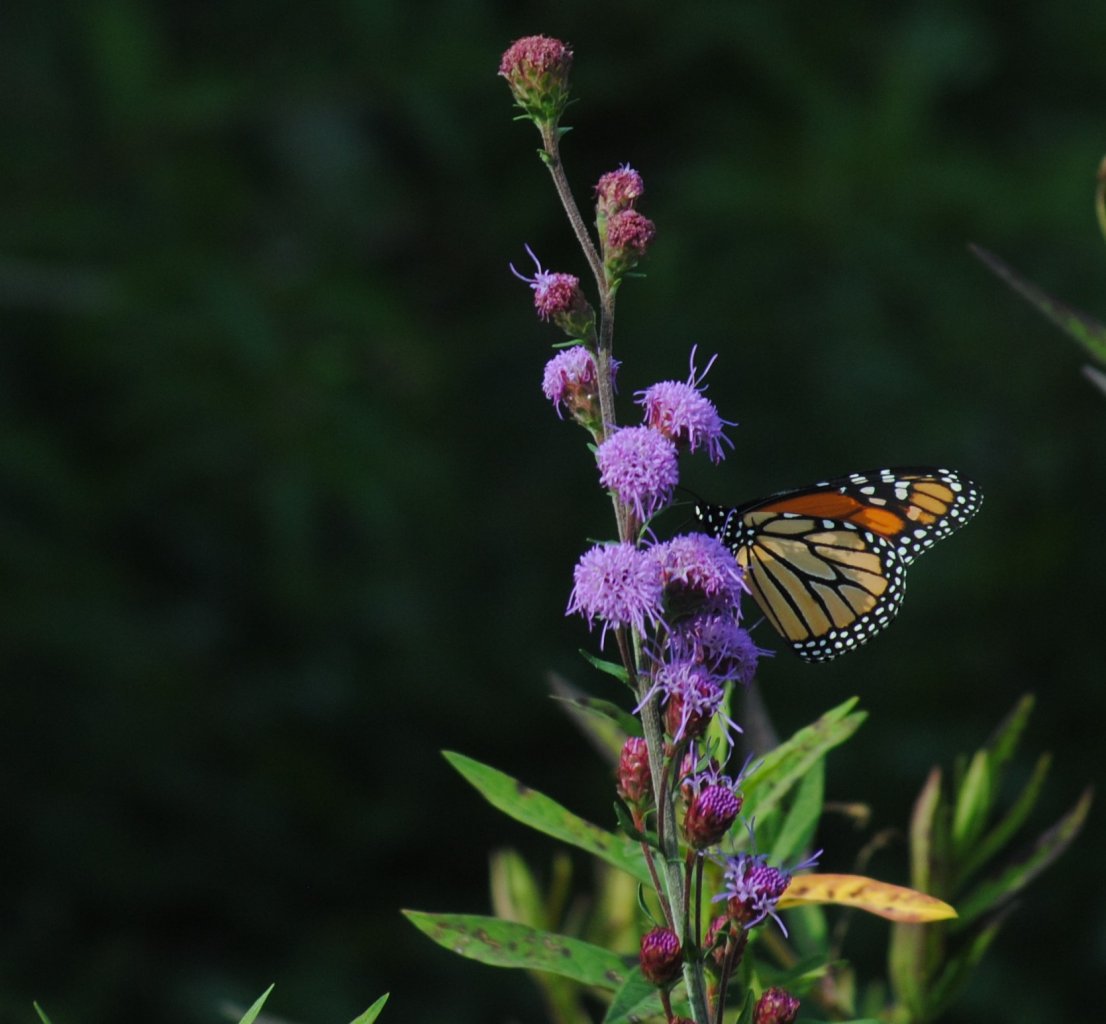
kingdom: Animalia
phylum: Arthropoda
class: Insecta
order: Lepidoptera
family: Nymphalidae
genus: Danaus
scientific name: Danaus plexippus
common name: Monarch
